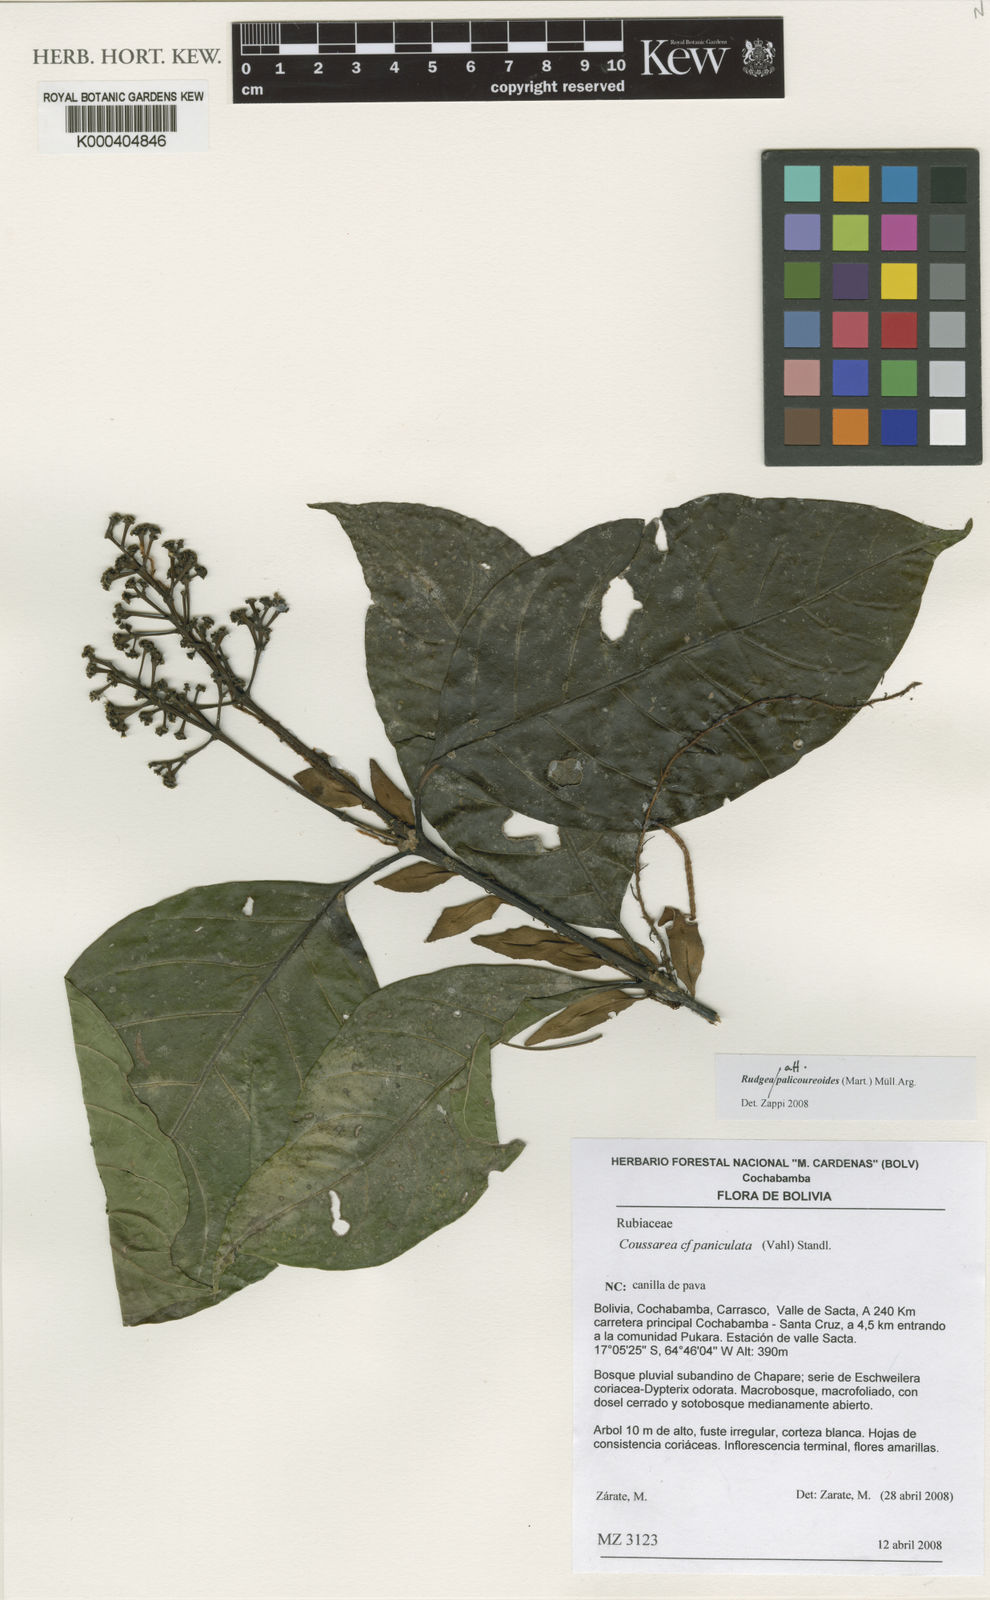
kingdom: Plantae
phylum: Tracheophyta
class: Magnoliopsida
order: Gentianales
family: Rubiaceae
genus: Rudgea
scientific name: Rudgea palicoureoides
